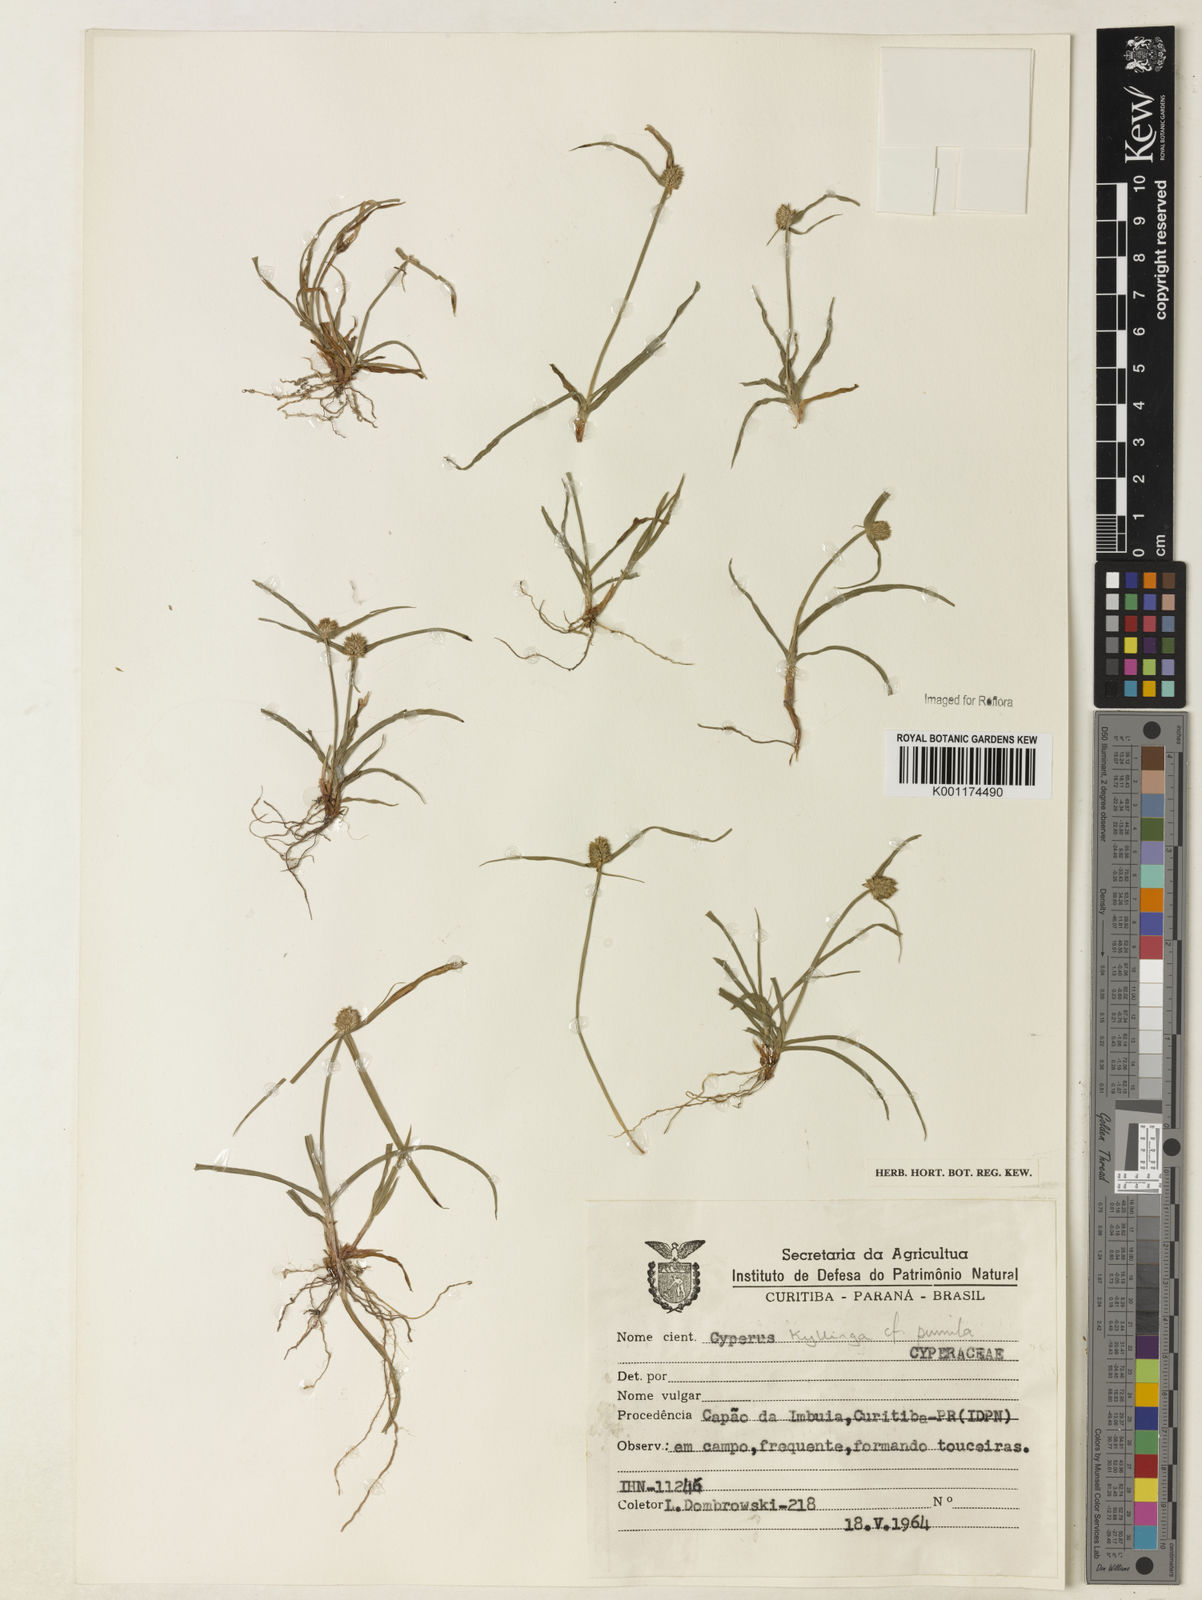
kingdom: Plantae
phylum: Tracheophyta
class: Liliopsida
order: Poales
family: Cyperaceae
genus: Cyperus
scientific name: Cyperus
